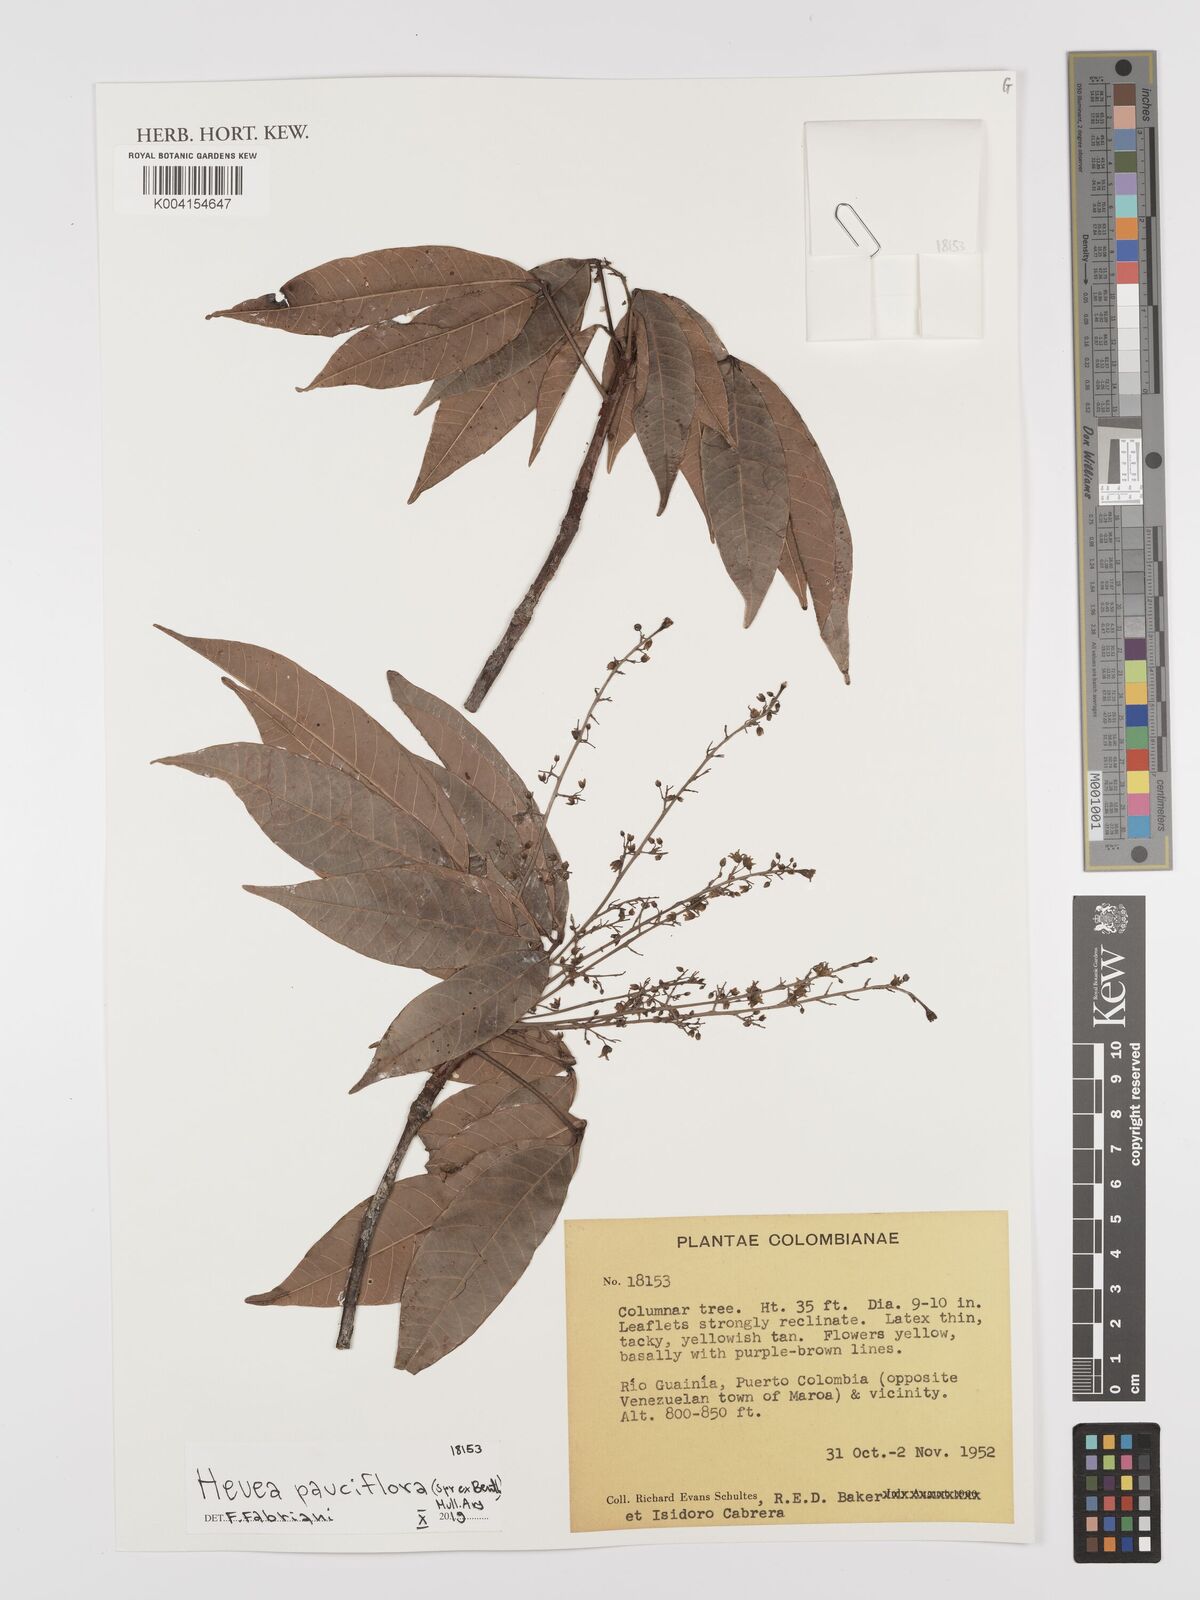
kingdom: Plantae
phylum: Tracheophyta
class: Magnoliopsida
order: Malpighiales
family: Euphorbiaceae
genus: Hevea
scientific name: Hevea pauciflora
